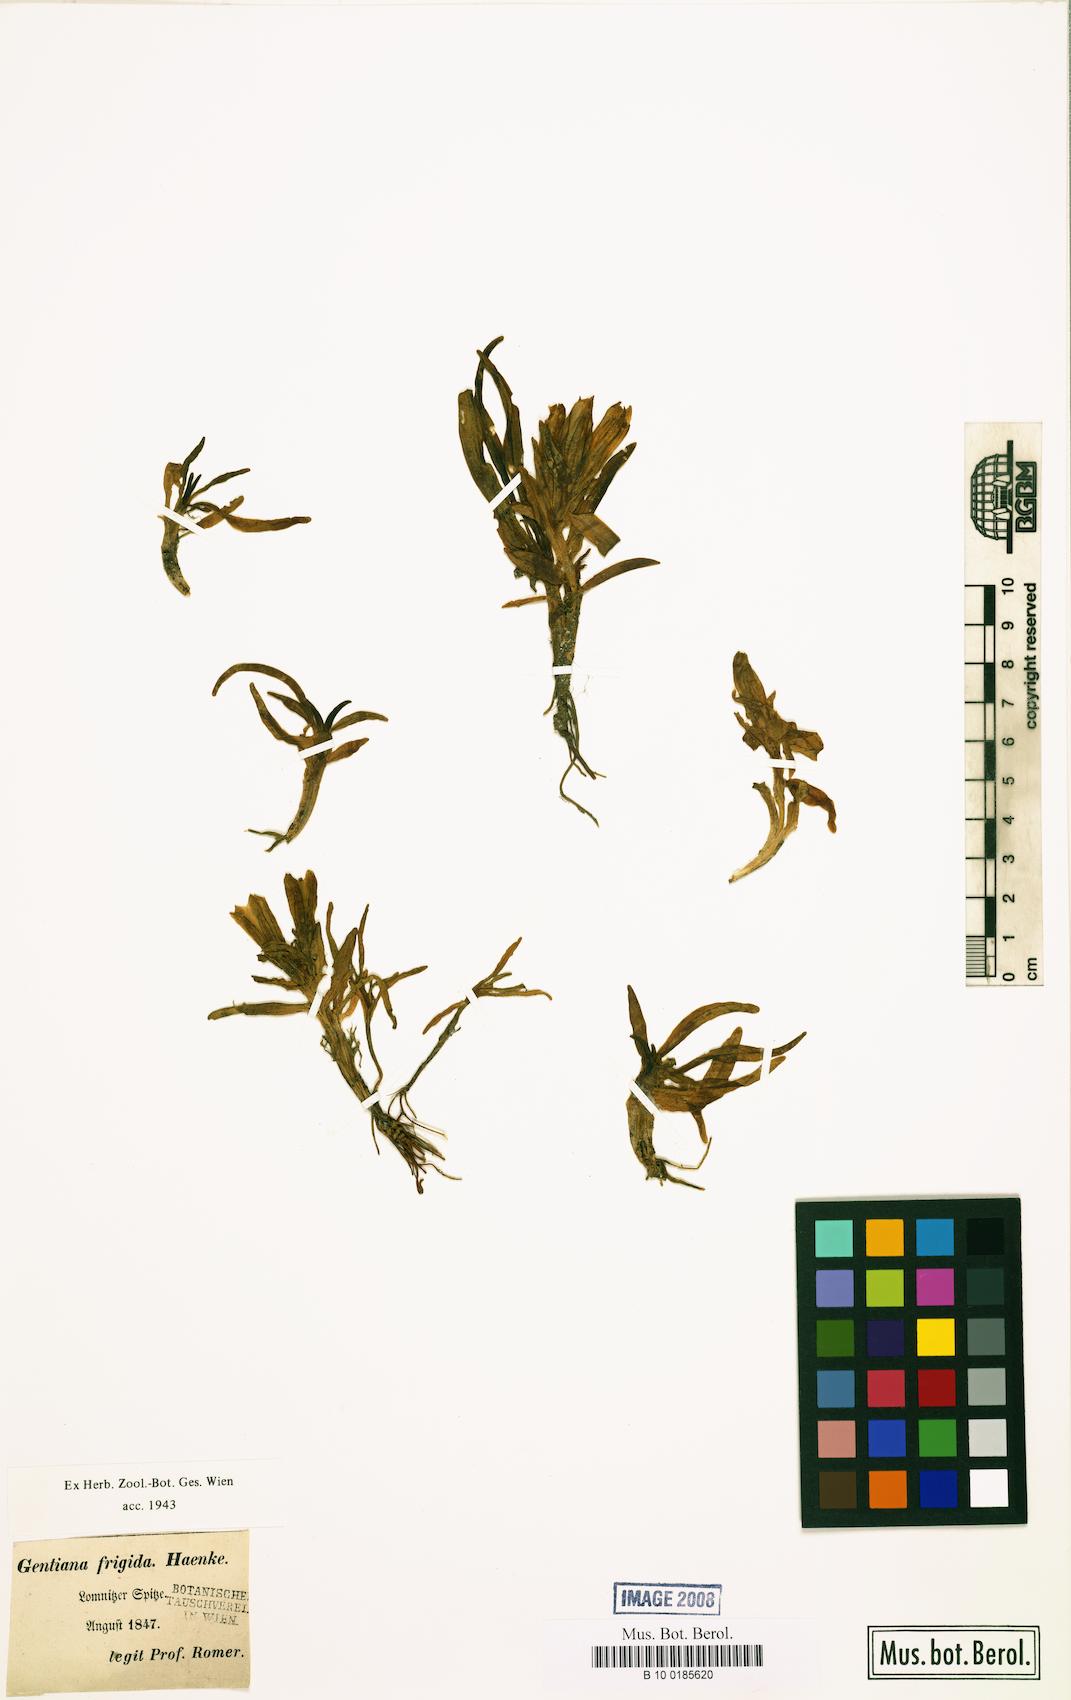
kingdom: Plantae
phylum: Tracheophyta
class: Magnoliopsida
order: Gentianales
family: Gentianaceae
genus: Gentiana
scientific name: Gentiana frigida
